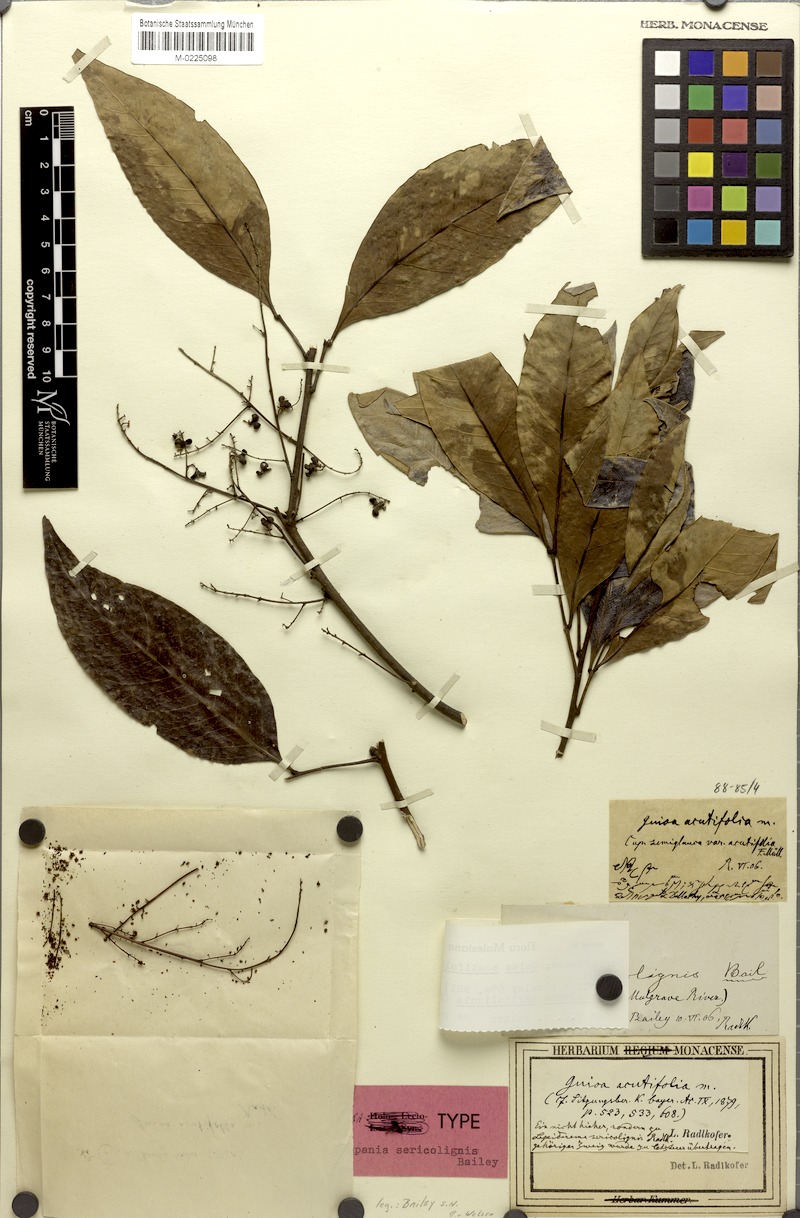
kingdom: Plantae
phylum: Tracheophyta
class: Magnoliopsida
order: Sapindales
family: Sapindaceae
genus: Guioa
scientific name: Guioa acutifolia
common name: Northern guioa
